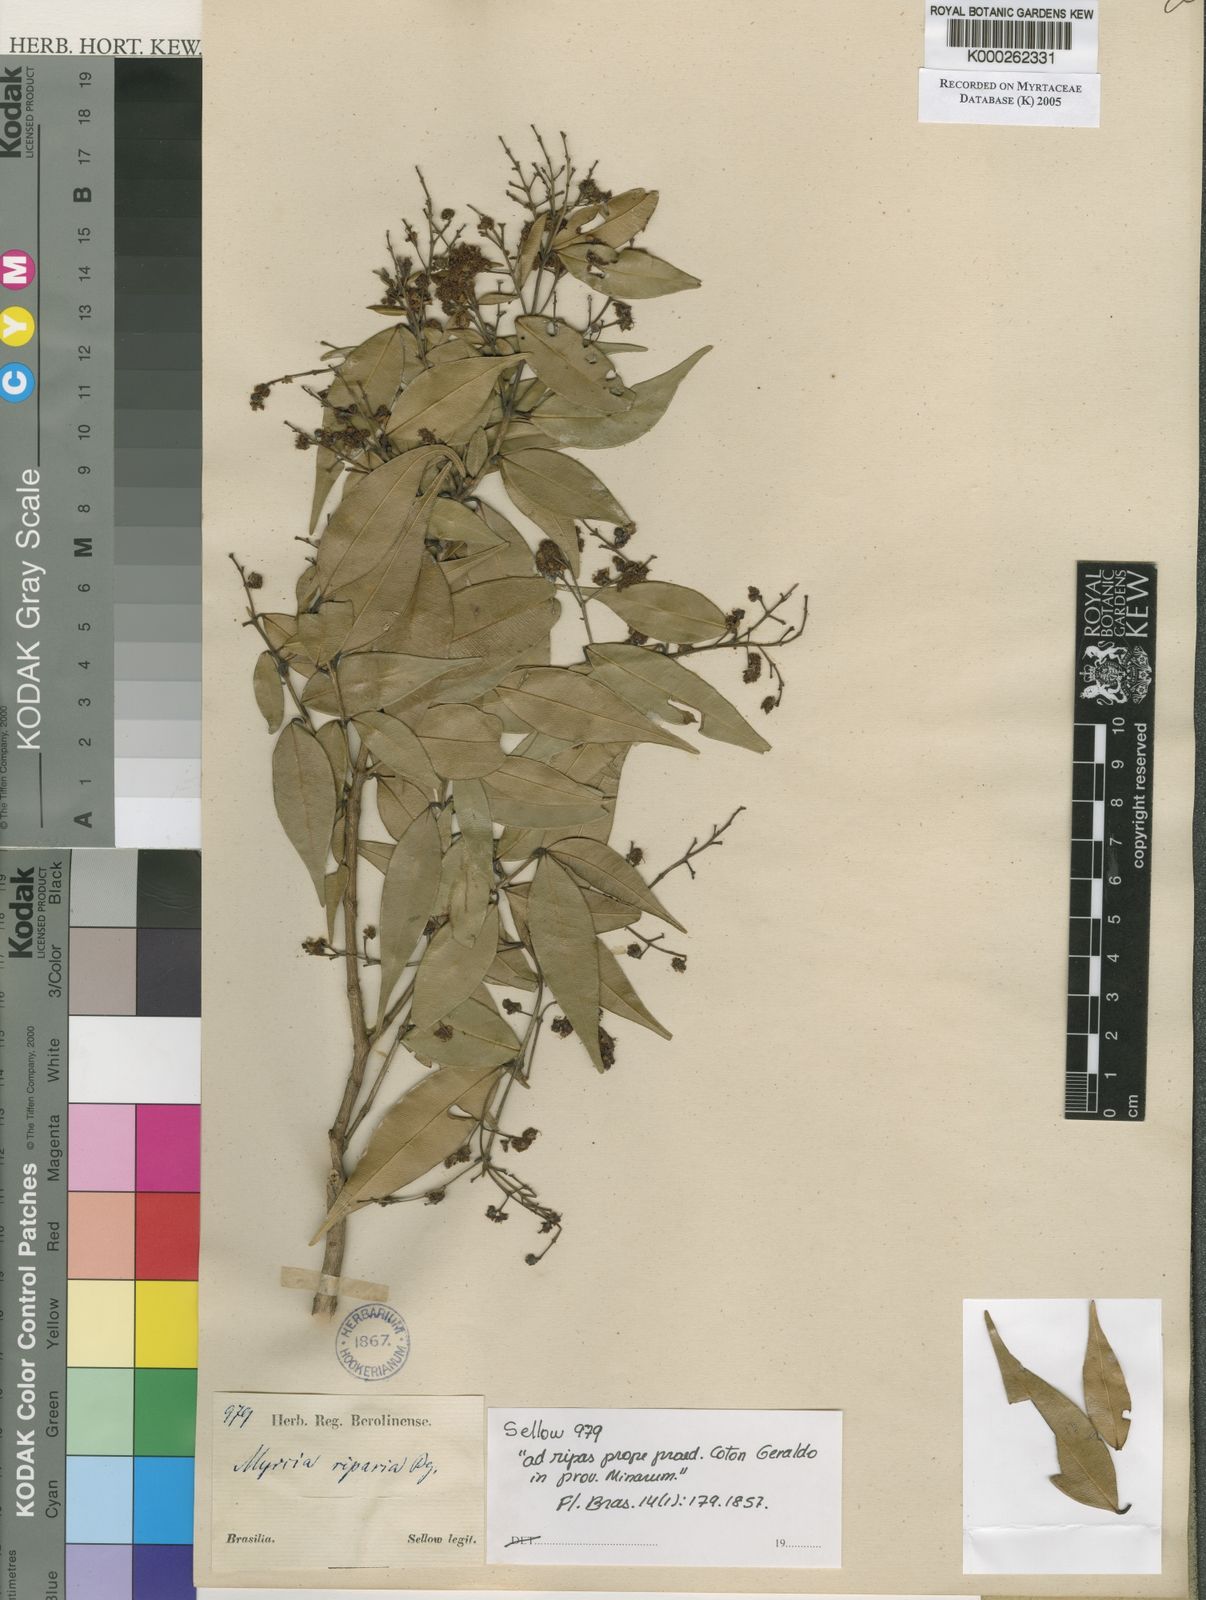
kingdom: Plantae
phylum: Tracheophyta
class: Magnoliopsida
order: Myrtales
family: Myrtaceae
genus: Myrcia
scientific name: Myrcia splendens
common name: Surinam cherry
